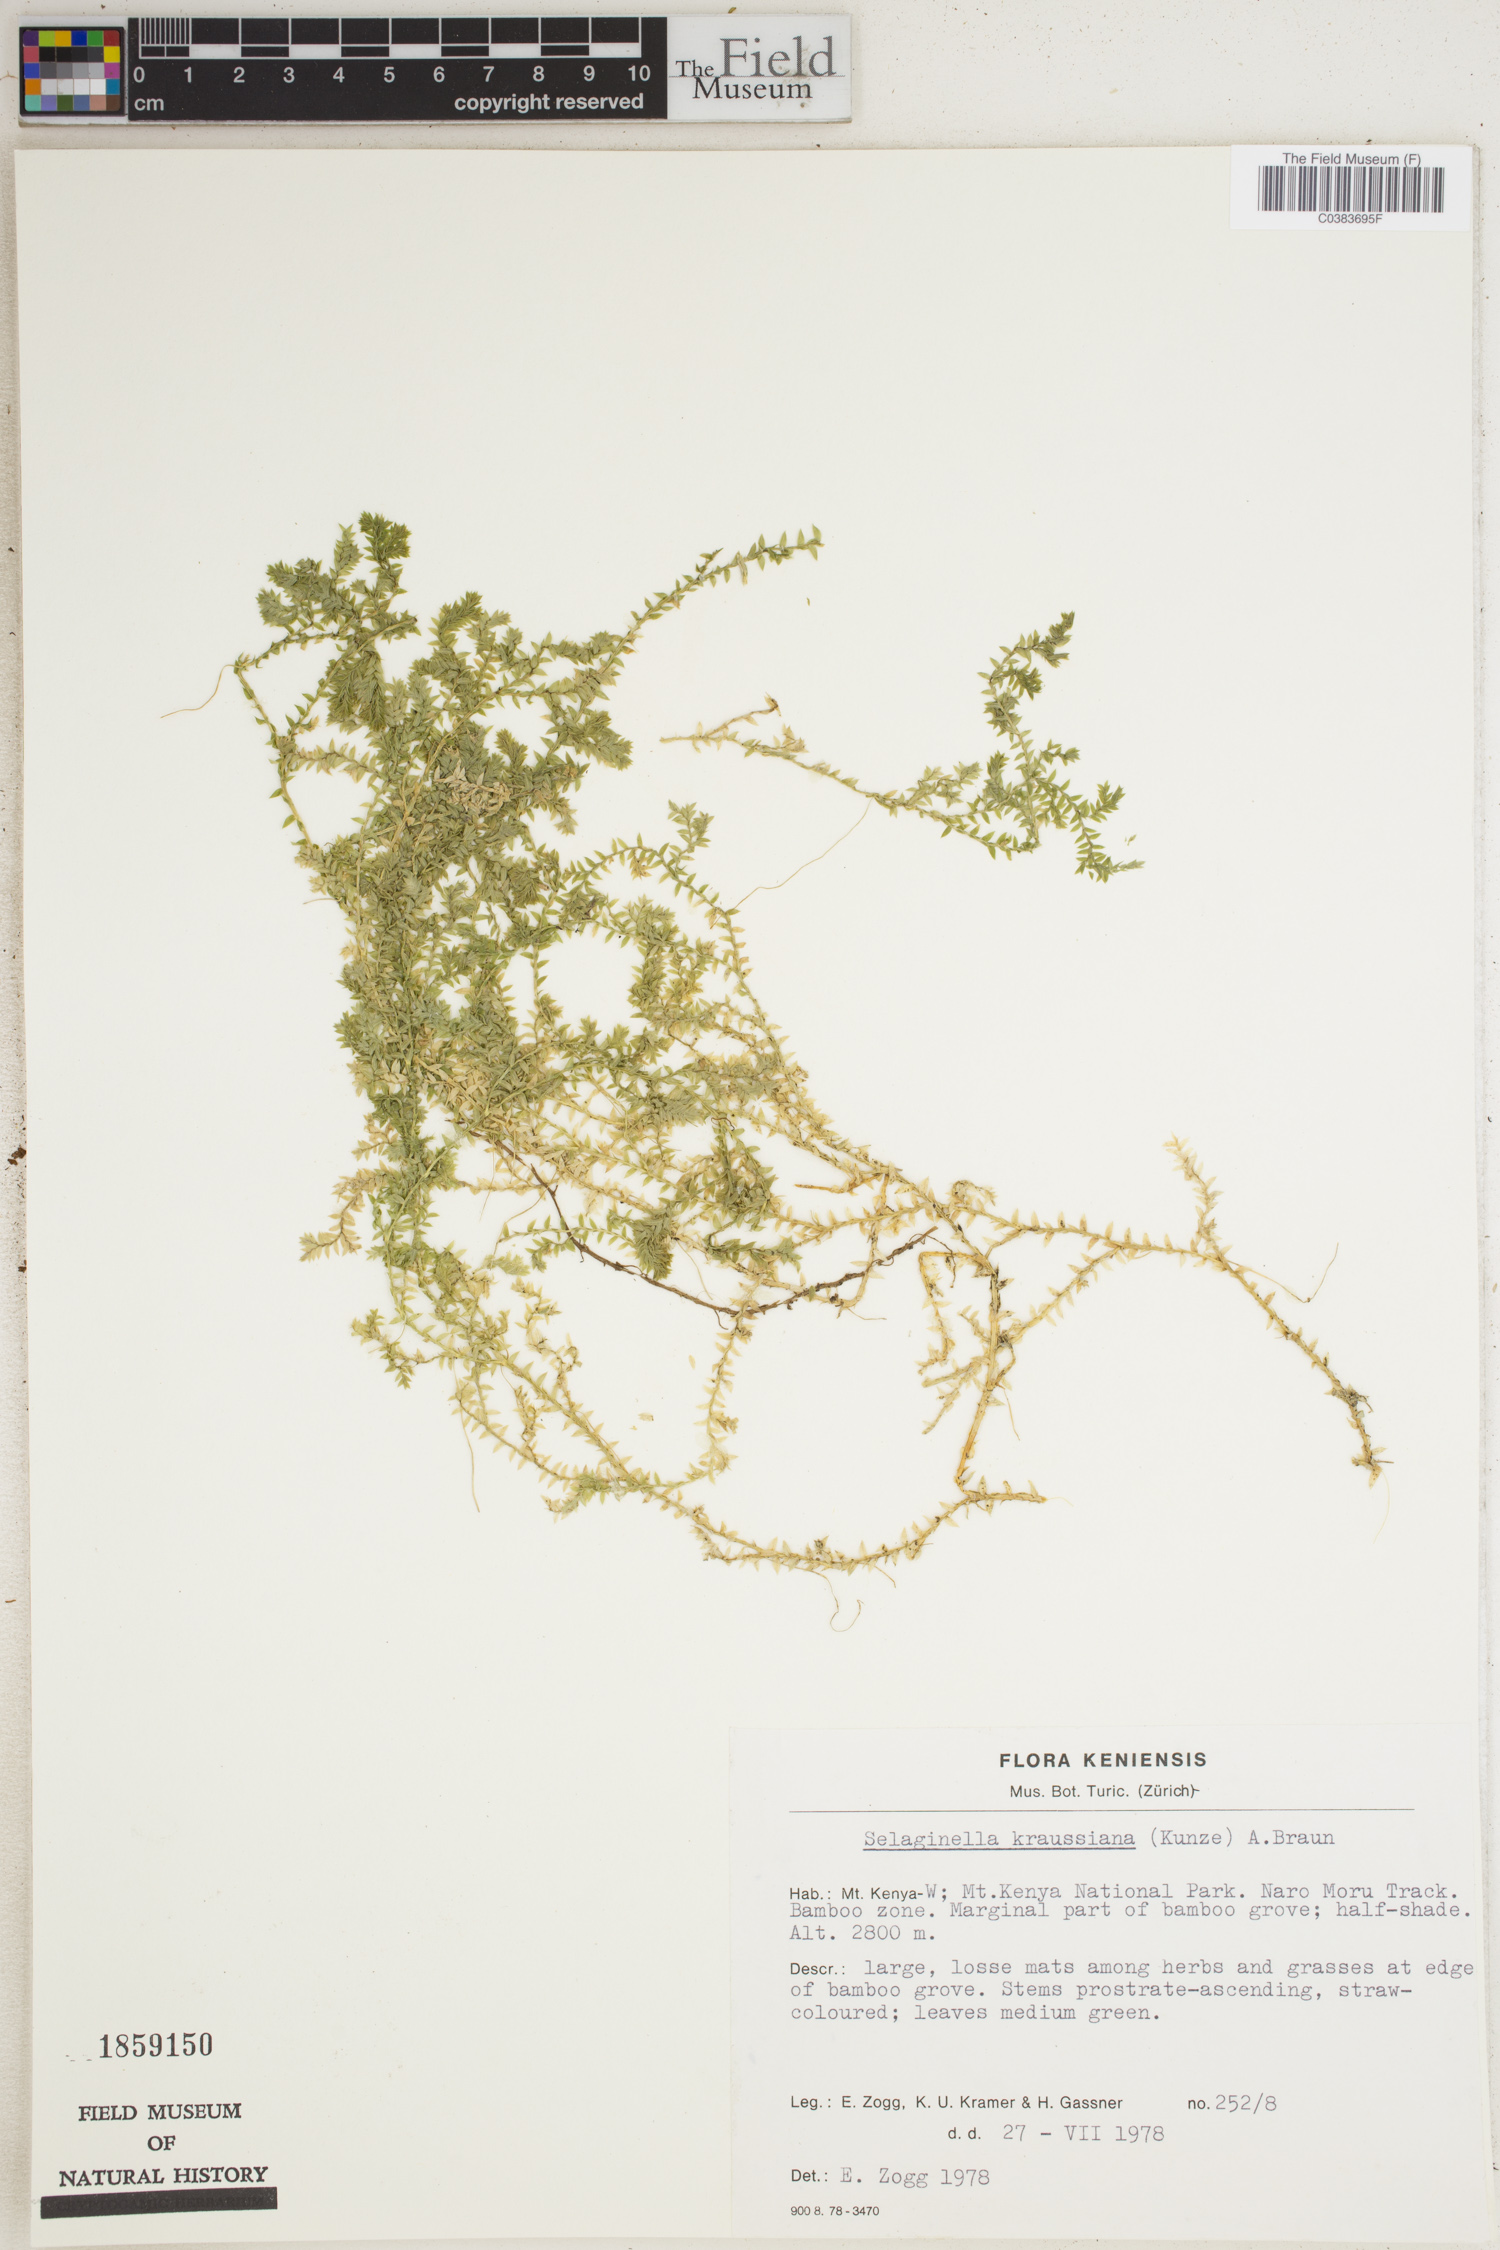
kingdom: Plantae
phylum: Tracheophyta
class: Lycopodiopsida
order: Selaginellales
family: Selaginellaceae
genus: Selaginella
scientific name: Selaginella kraussiana
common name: Krauss' spikemoss
